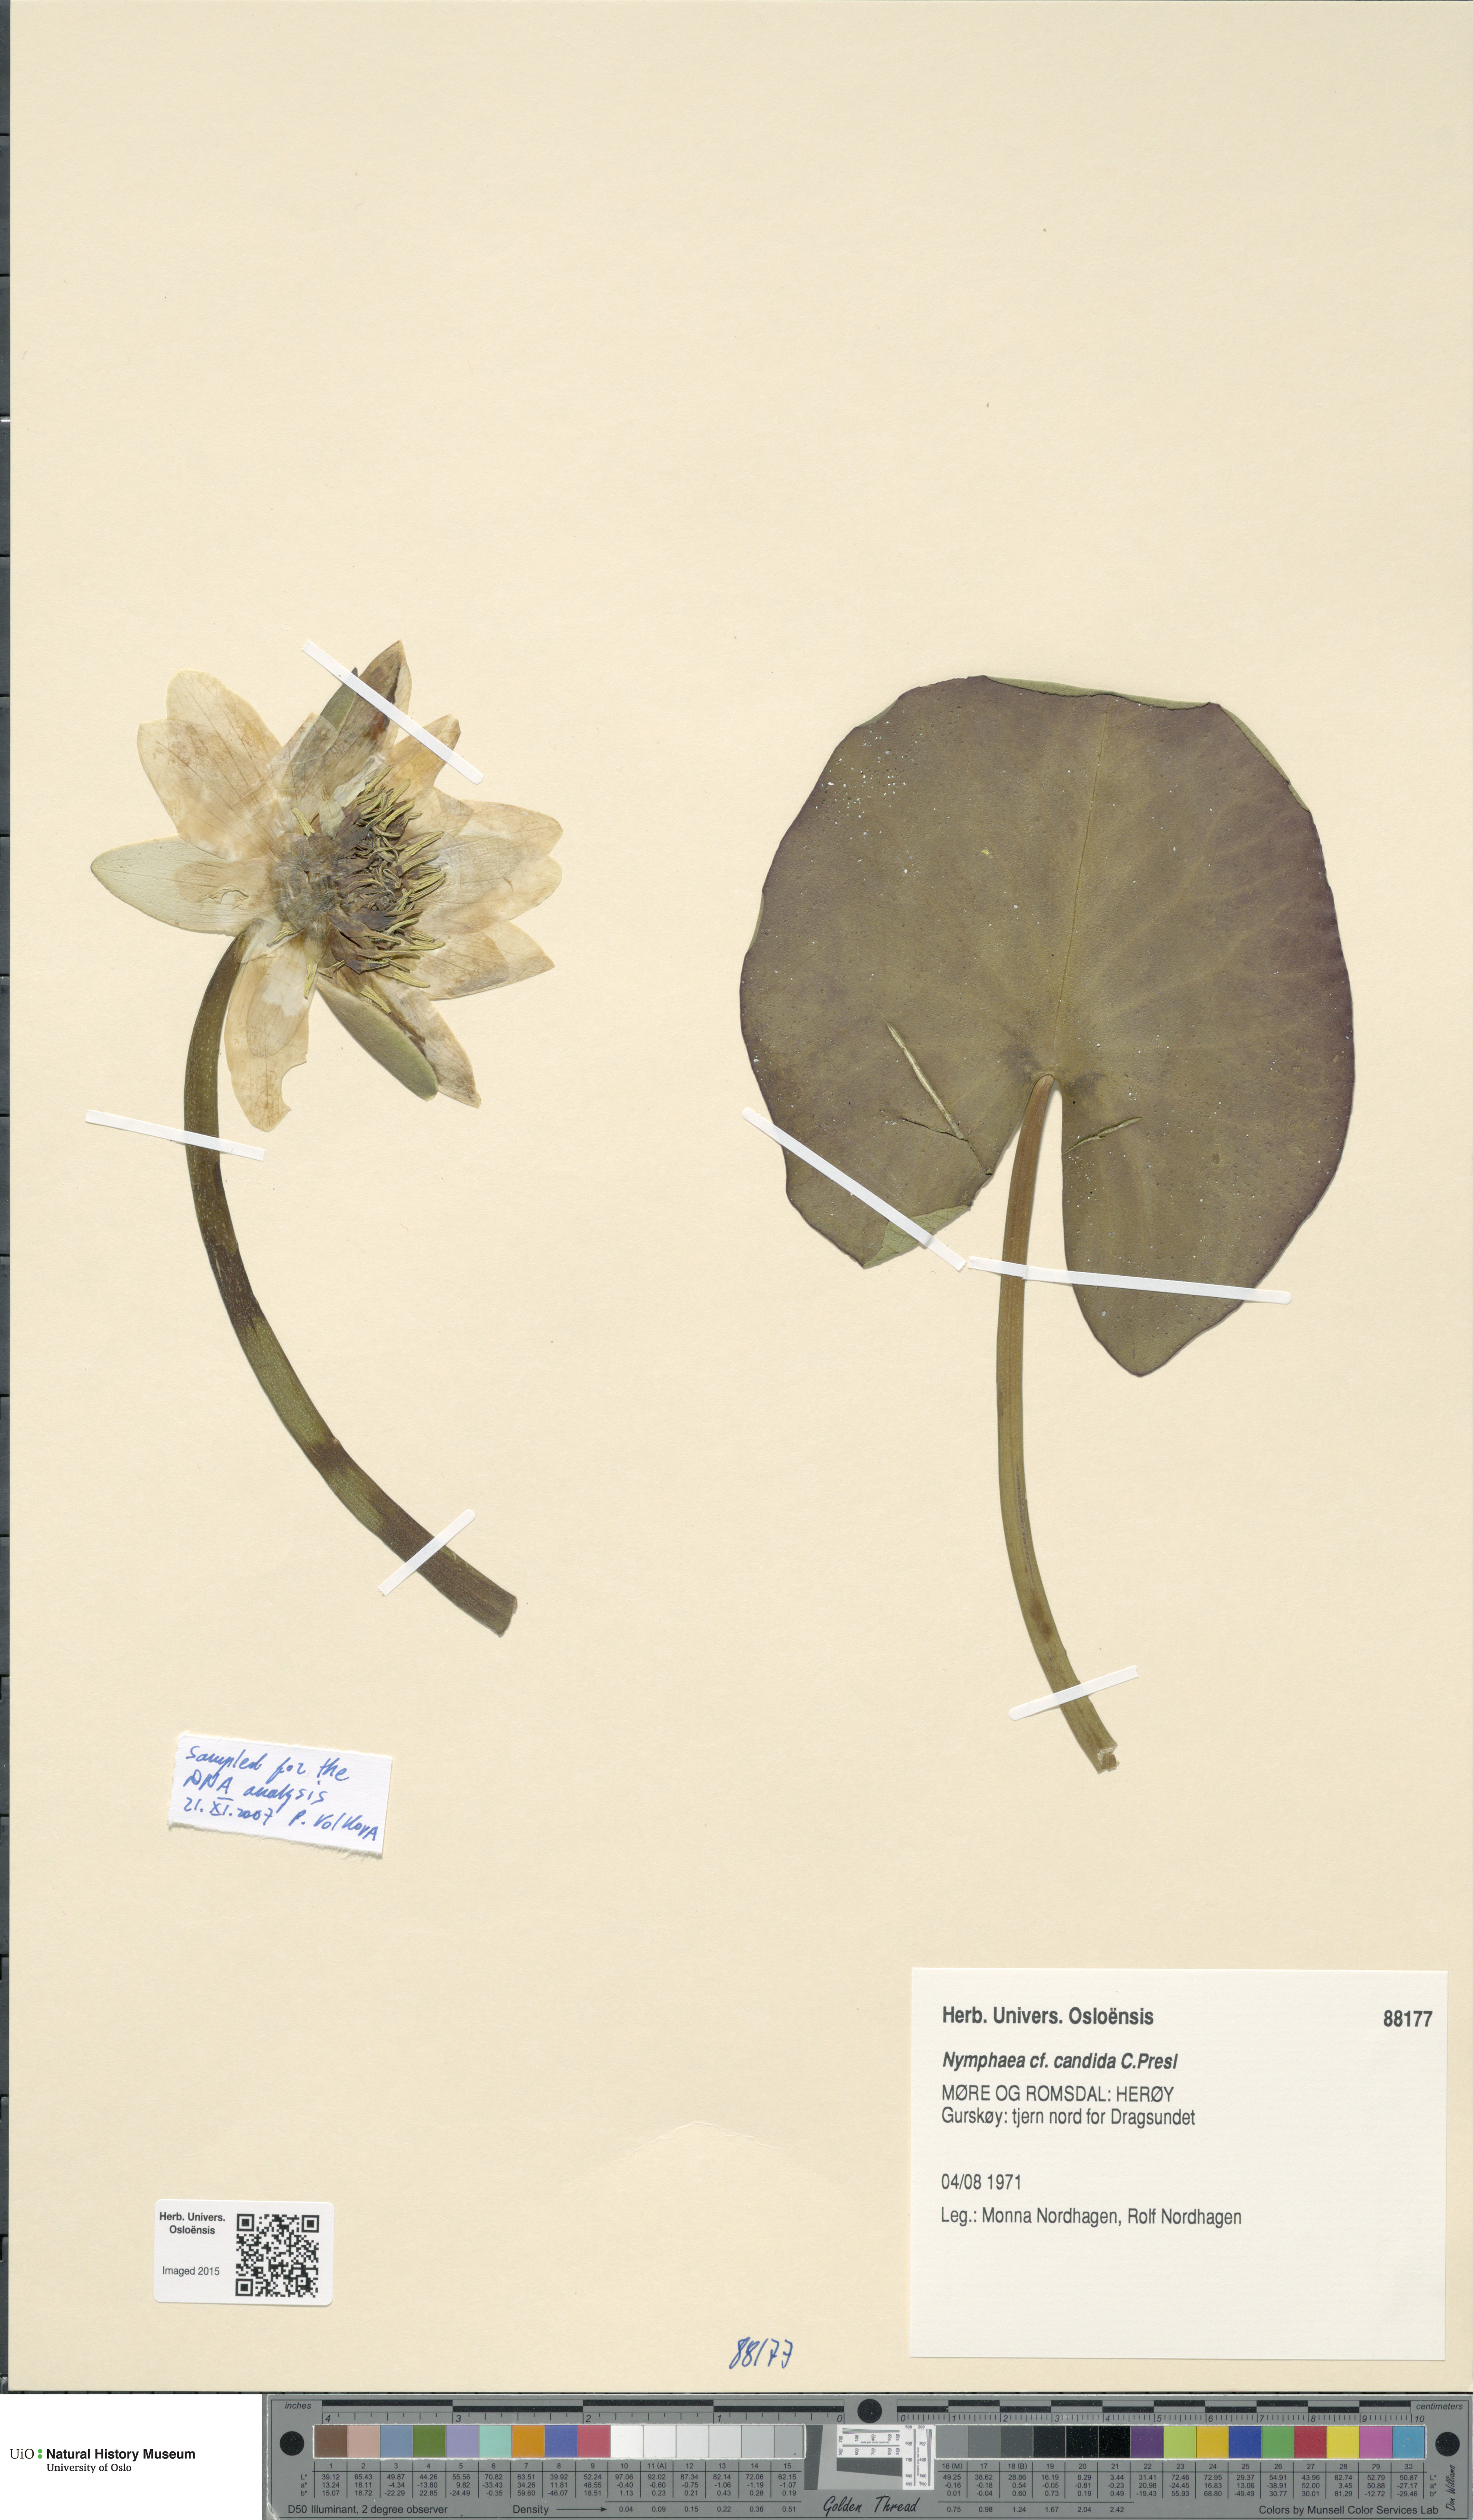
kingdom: Plantae
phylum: Tracheophyta
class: Magnoliopsida
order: Nymphaeales
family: Nymphaeaceae
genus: Nymphaea
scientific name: Nymphaea candida
